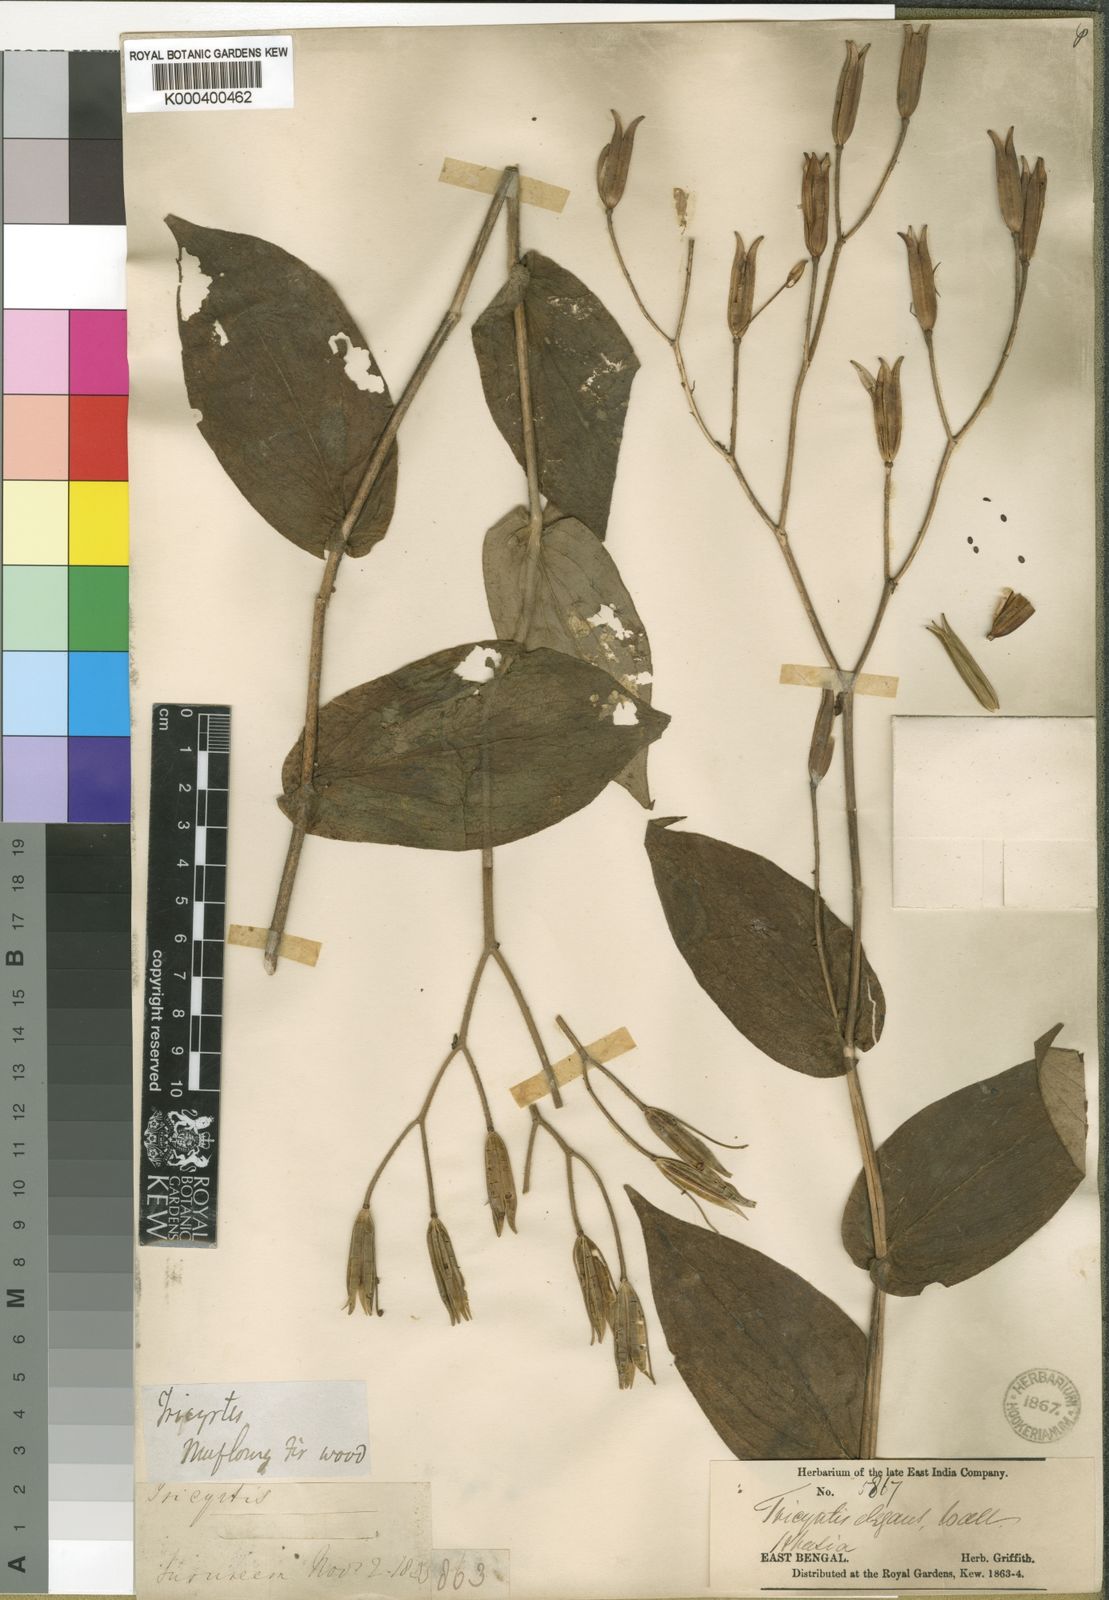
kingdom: Plantae
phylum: Tracheophyta
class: Liliopsida
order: Liliales
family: Liliaceae
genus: Tricyrtis
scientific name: Tricyrtis maculata
